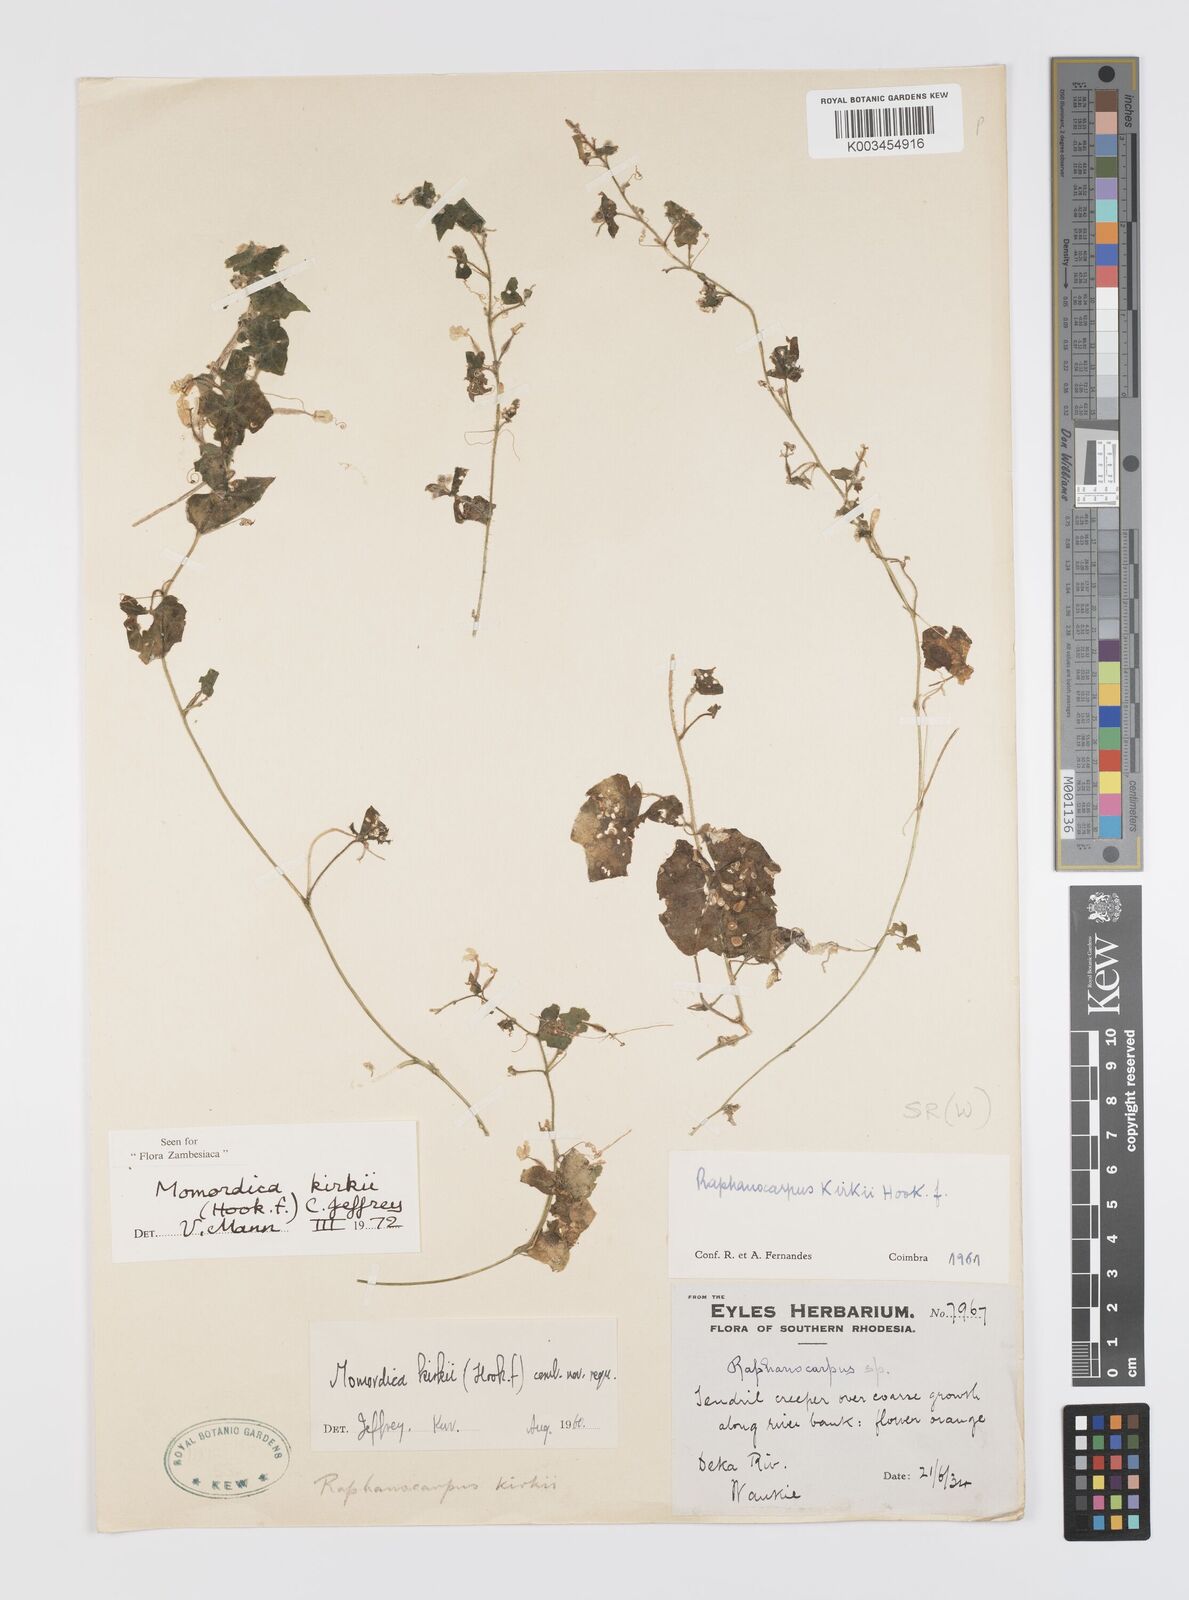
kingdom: Plantae
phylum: Tracheophyta
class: Magnoliopsida
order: Cucurbitales
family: Cucurbitaceae
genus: Momordica
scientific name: Momordica kirkii
